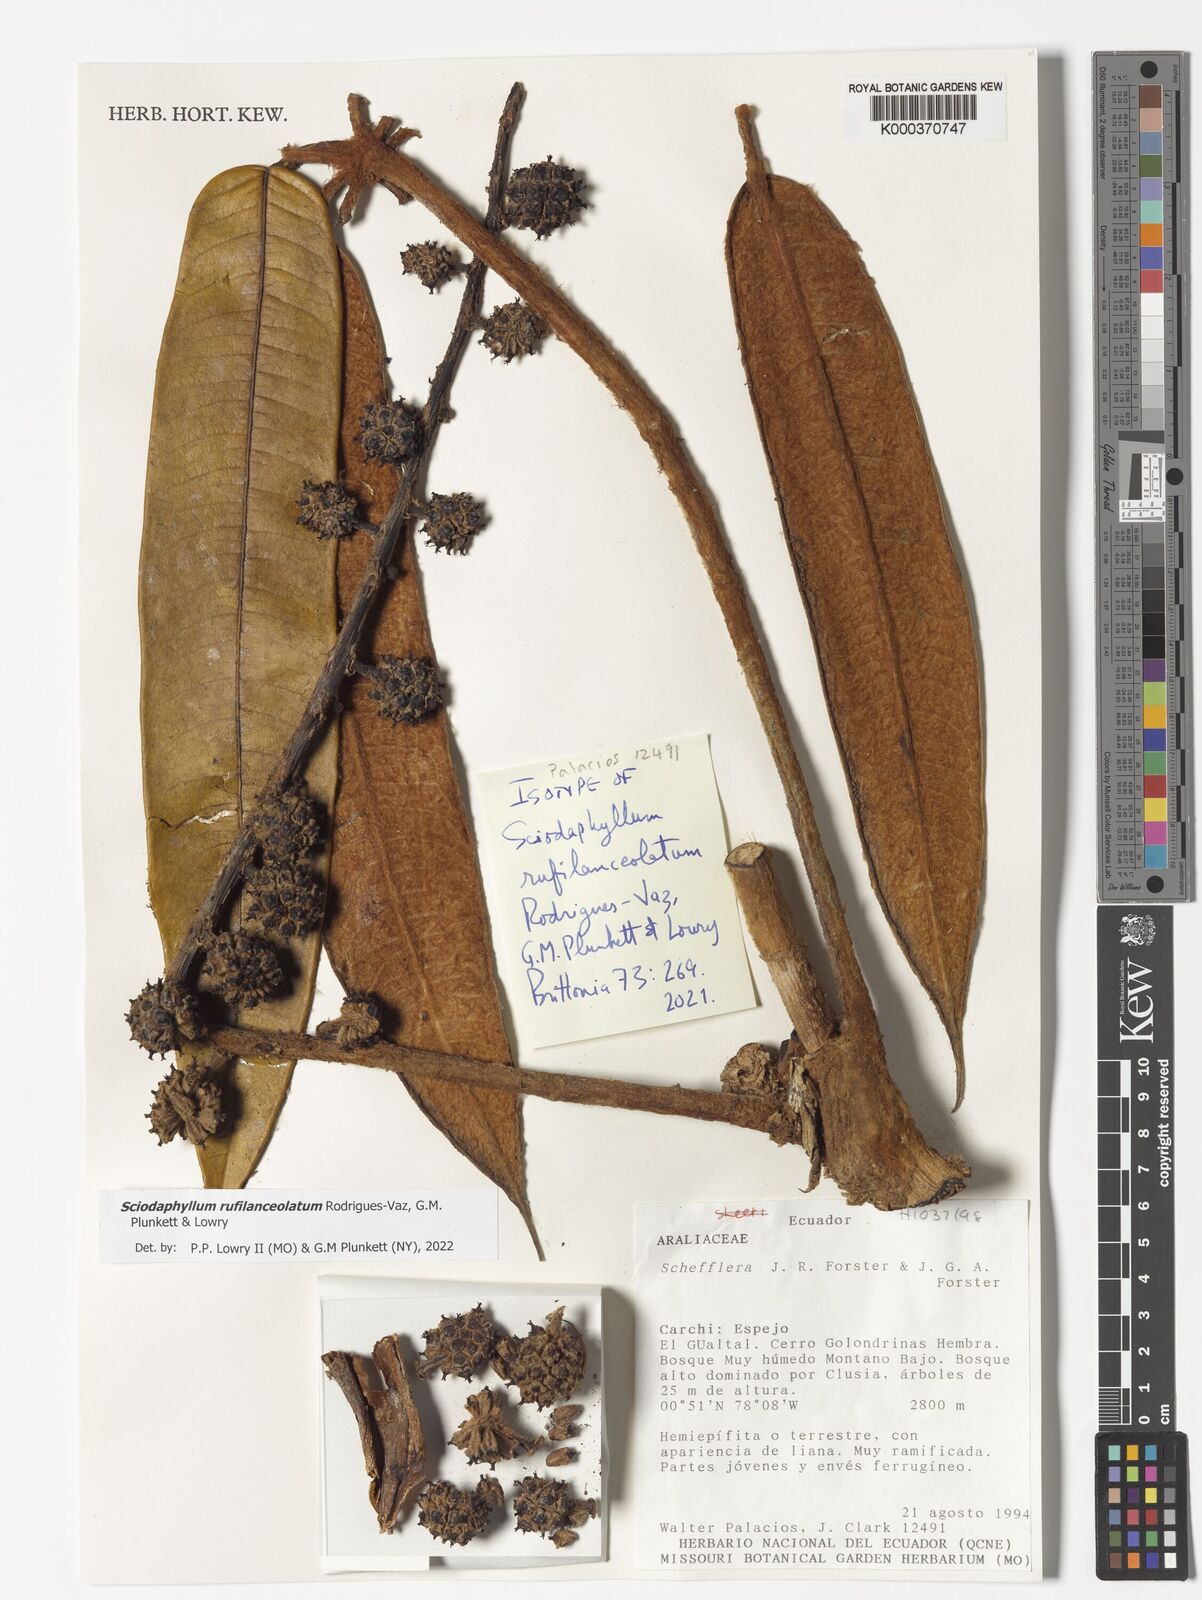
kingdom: Plantae
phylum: Tracheophyta
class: Magnoliopsida
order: Apiales
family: Araliaceae
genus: Sciodaphyllum
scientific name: Sciodaphyllum
